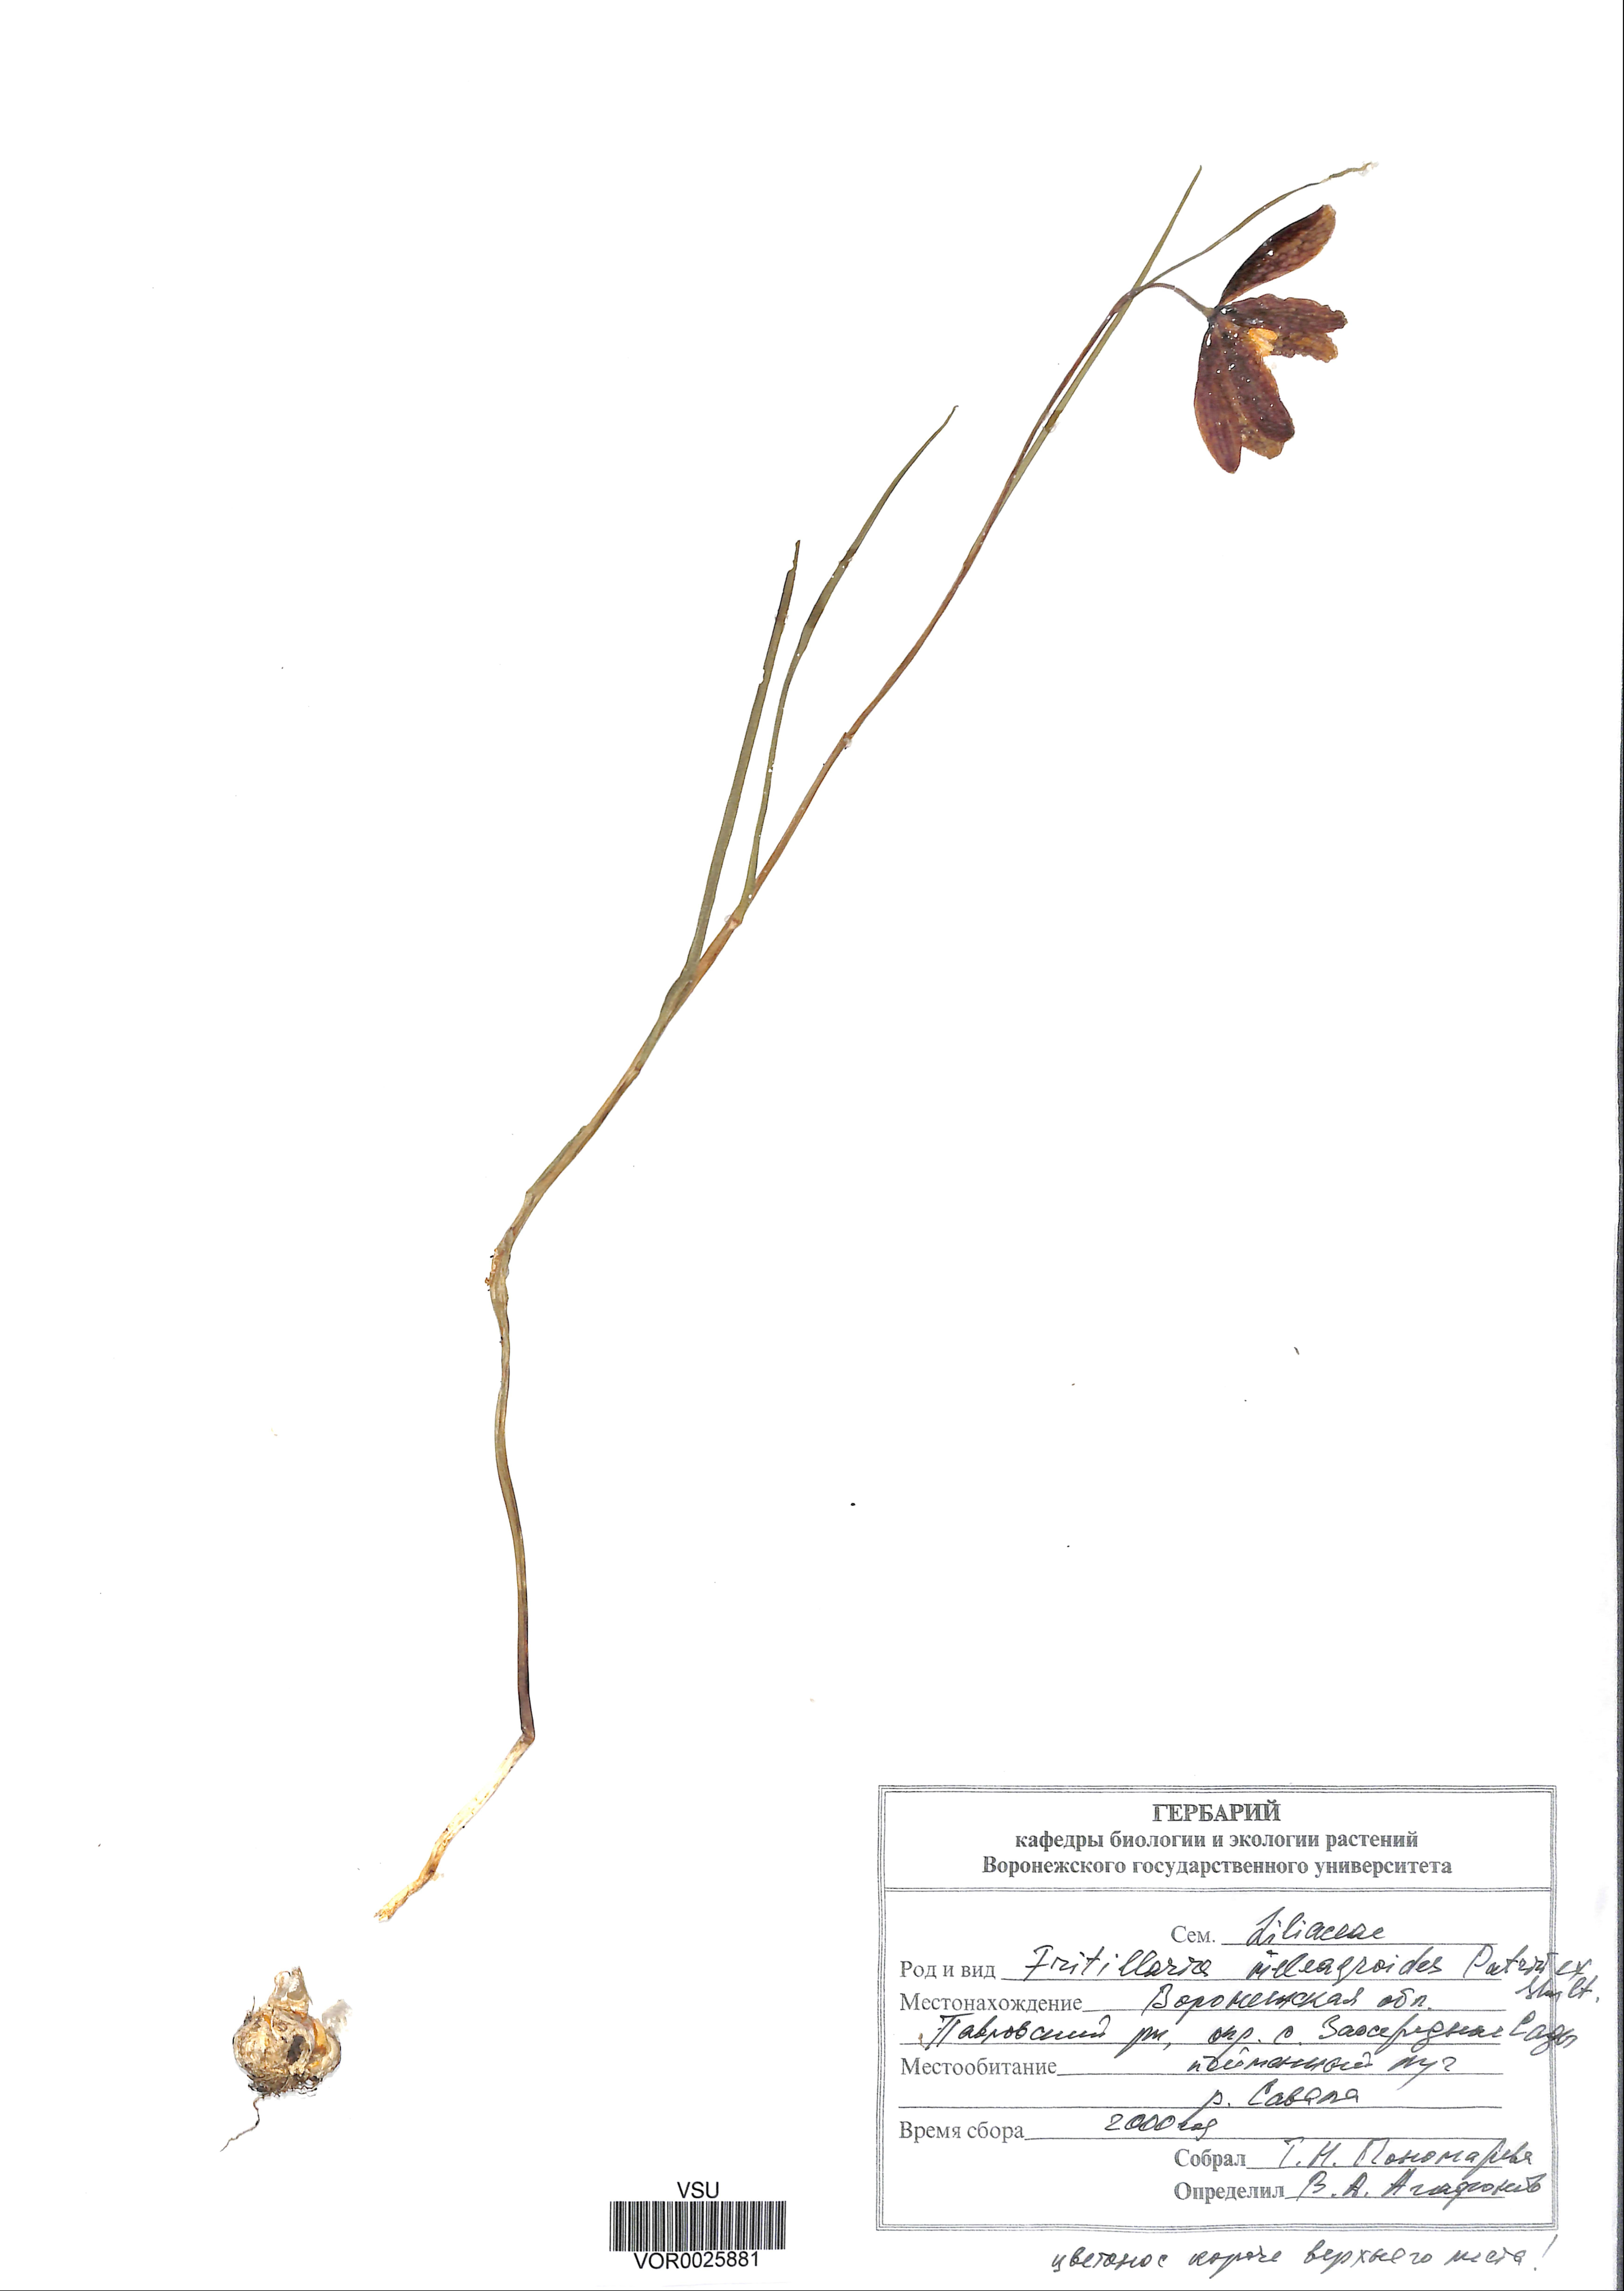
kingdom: Plantae
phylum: Tracheophyta
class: Liliopsida
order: Liliales
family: Liliaceae
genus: Fritillaria
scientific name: Fritillaria meleagroides
